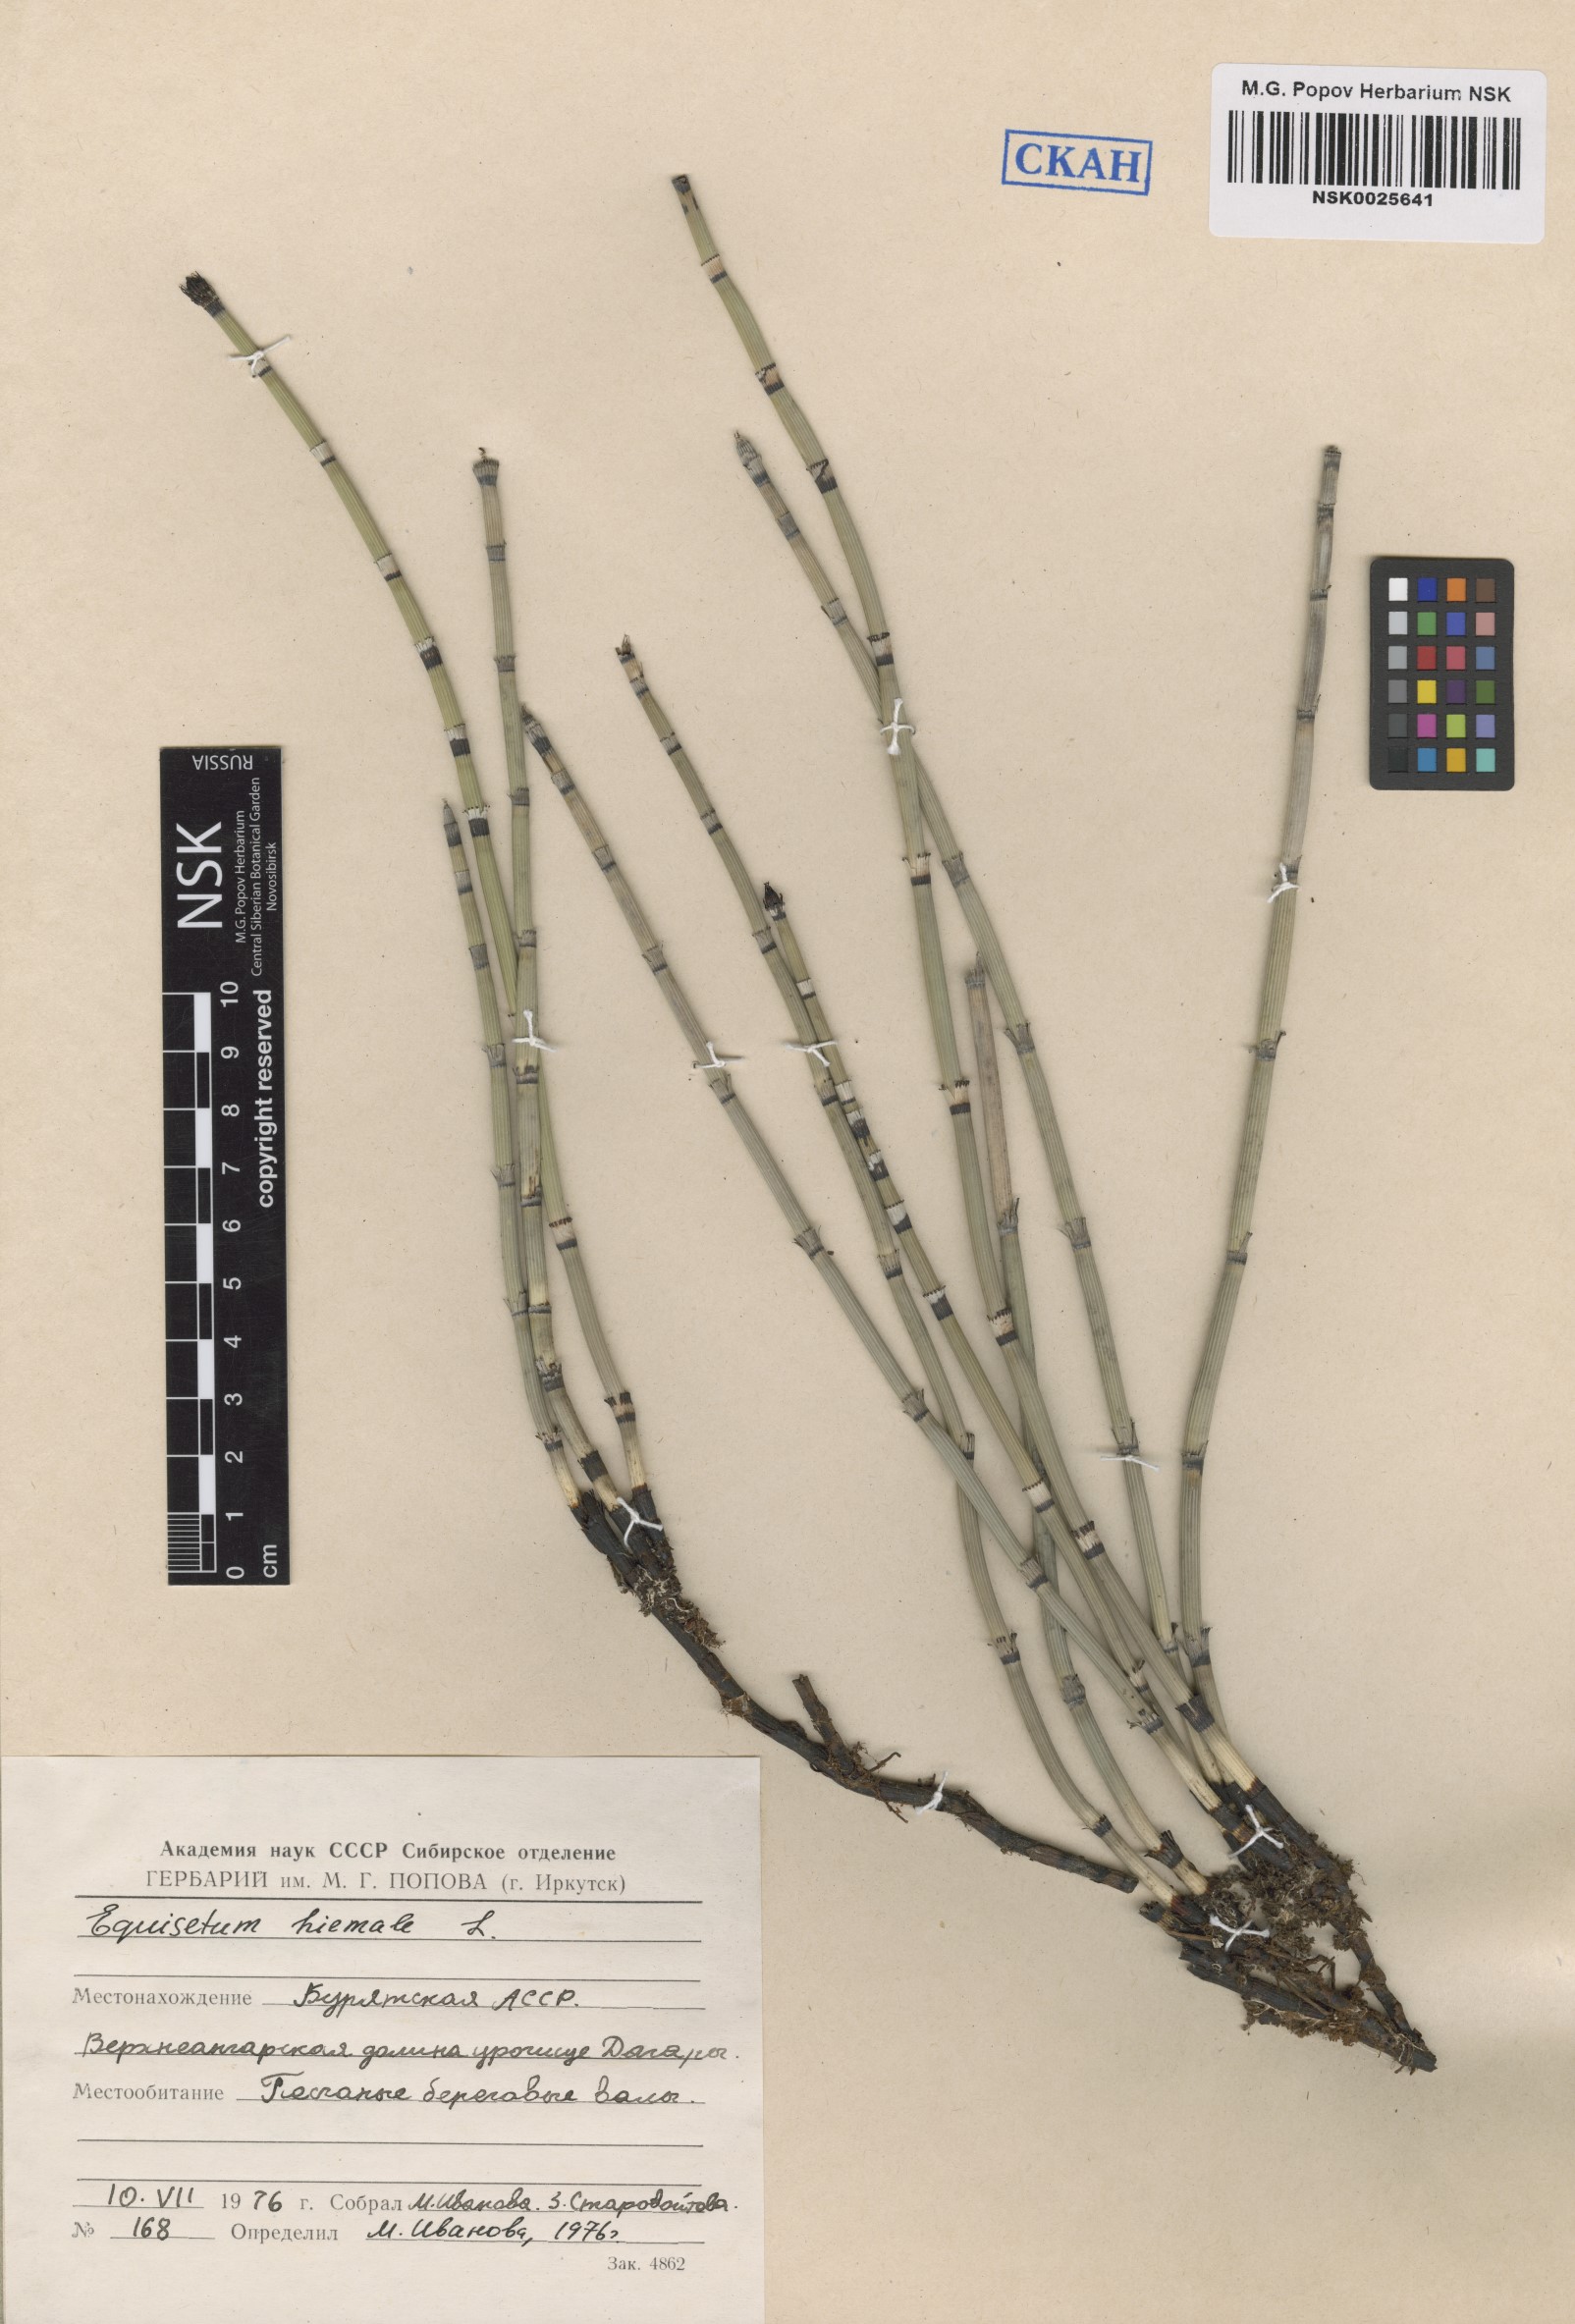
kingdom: Plantae
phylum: Tracheophyta
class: Polypodiopsida
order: Equisetales
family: Equisetaceae
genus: Equisetum
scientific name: Equisetum hyemale
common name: Rough horsetail
